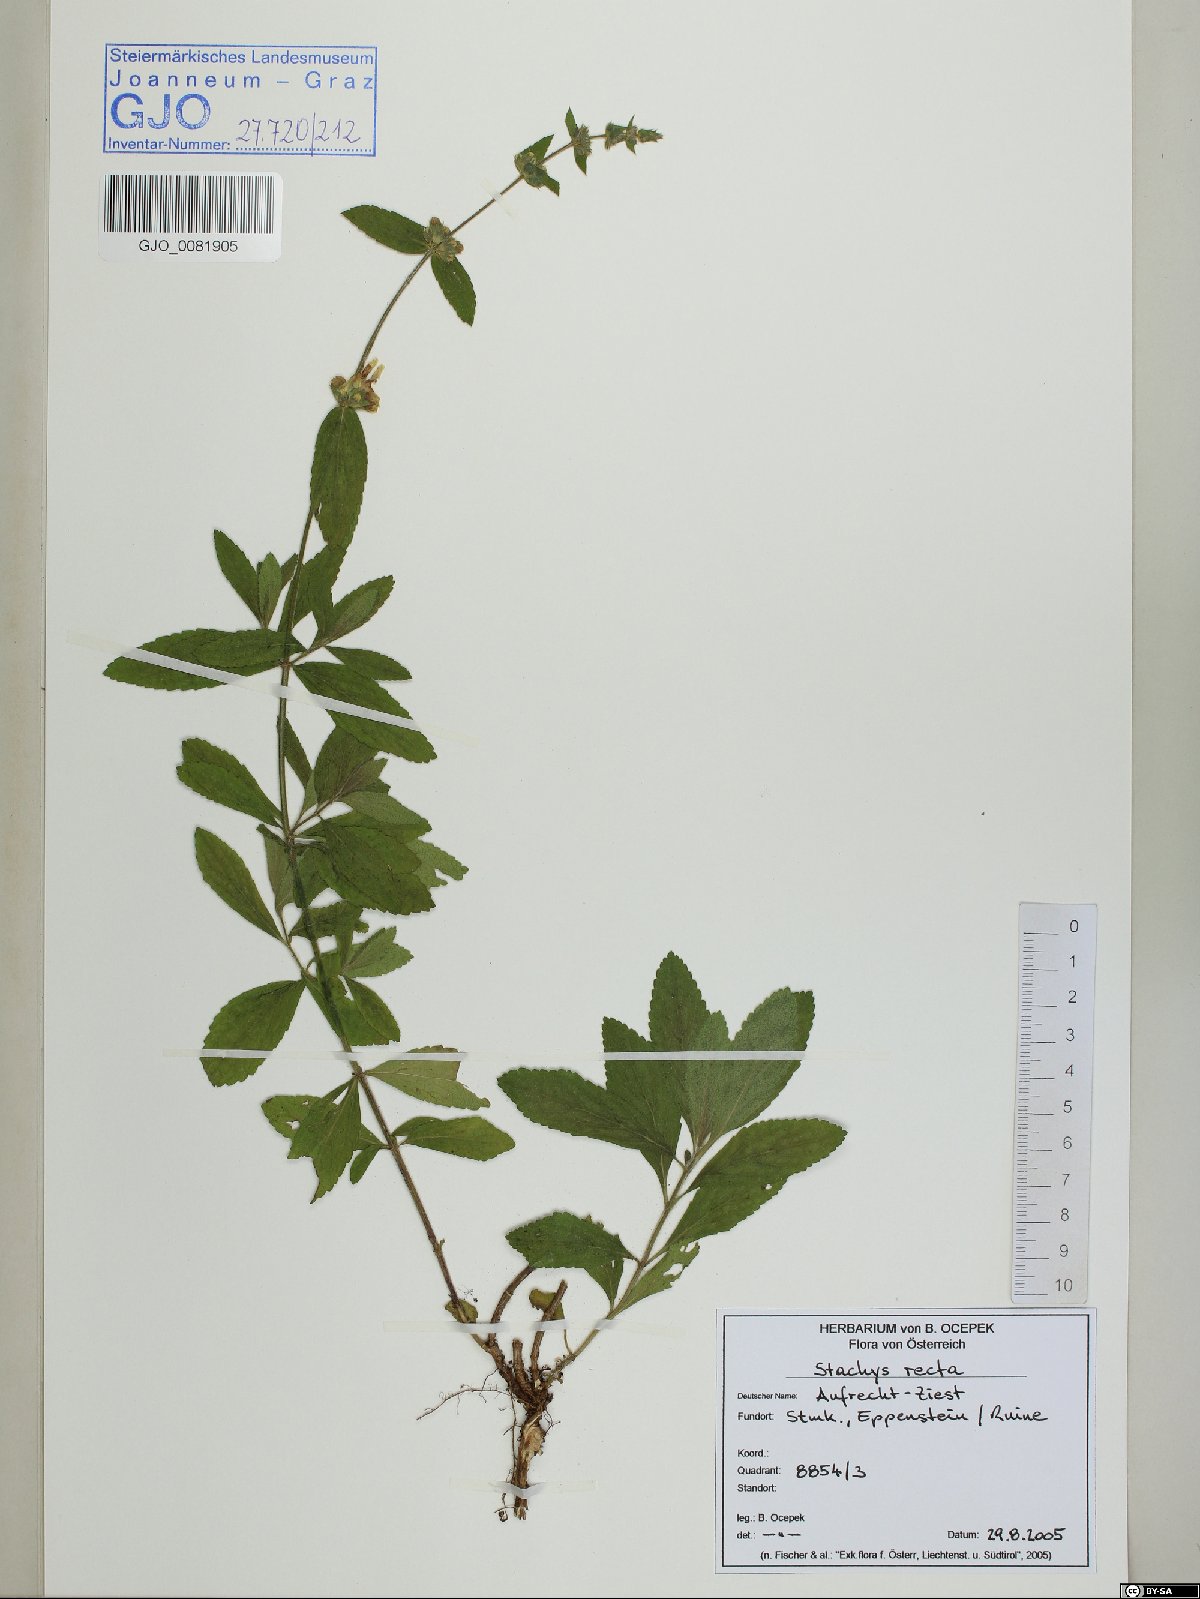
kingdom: Plantae
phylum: Tracheophyta
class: Magnoliopsida
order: Lamiales
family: Lamiaceae
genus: Stachys
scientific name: Stachys recta
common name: Perennial yellow-woundwort
